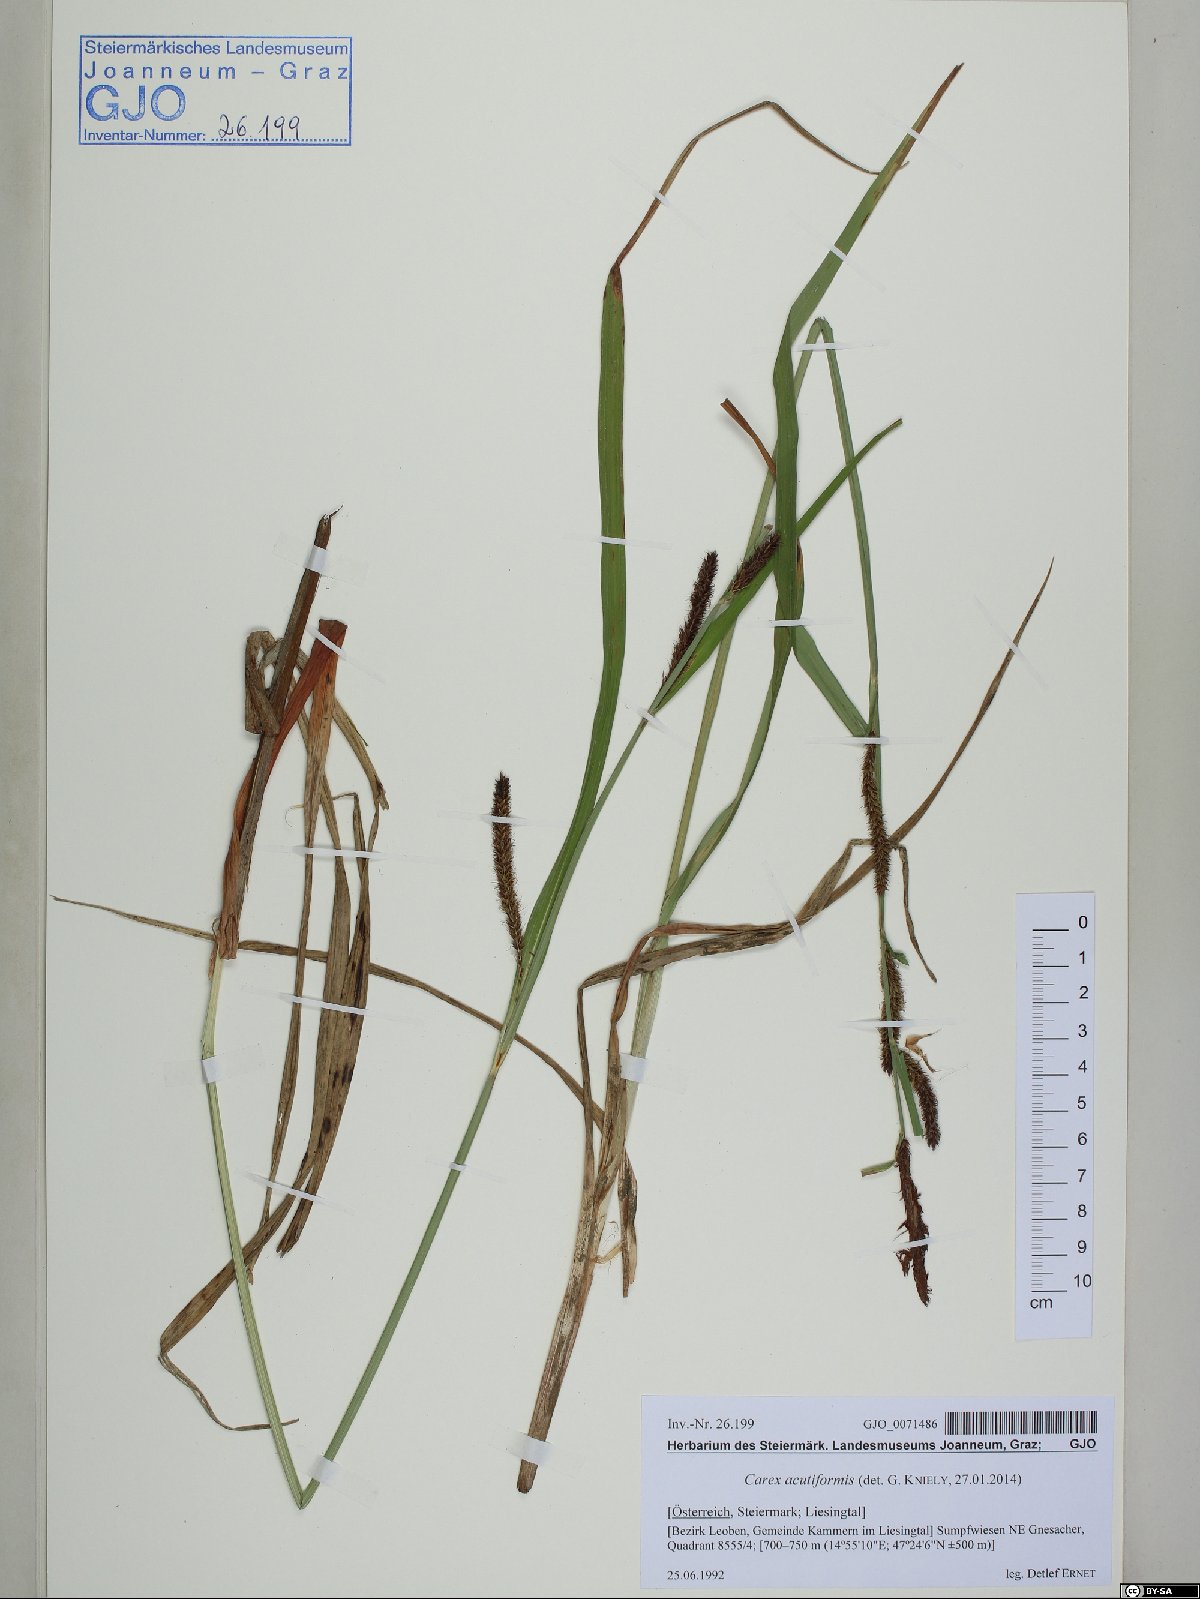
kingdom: Plantae
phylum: Tracheophyta
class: Liliopsida
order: Poales
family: Cyperaceae
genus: Carex
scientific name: Carex acutiformis
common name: Lesser pond-sedge
